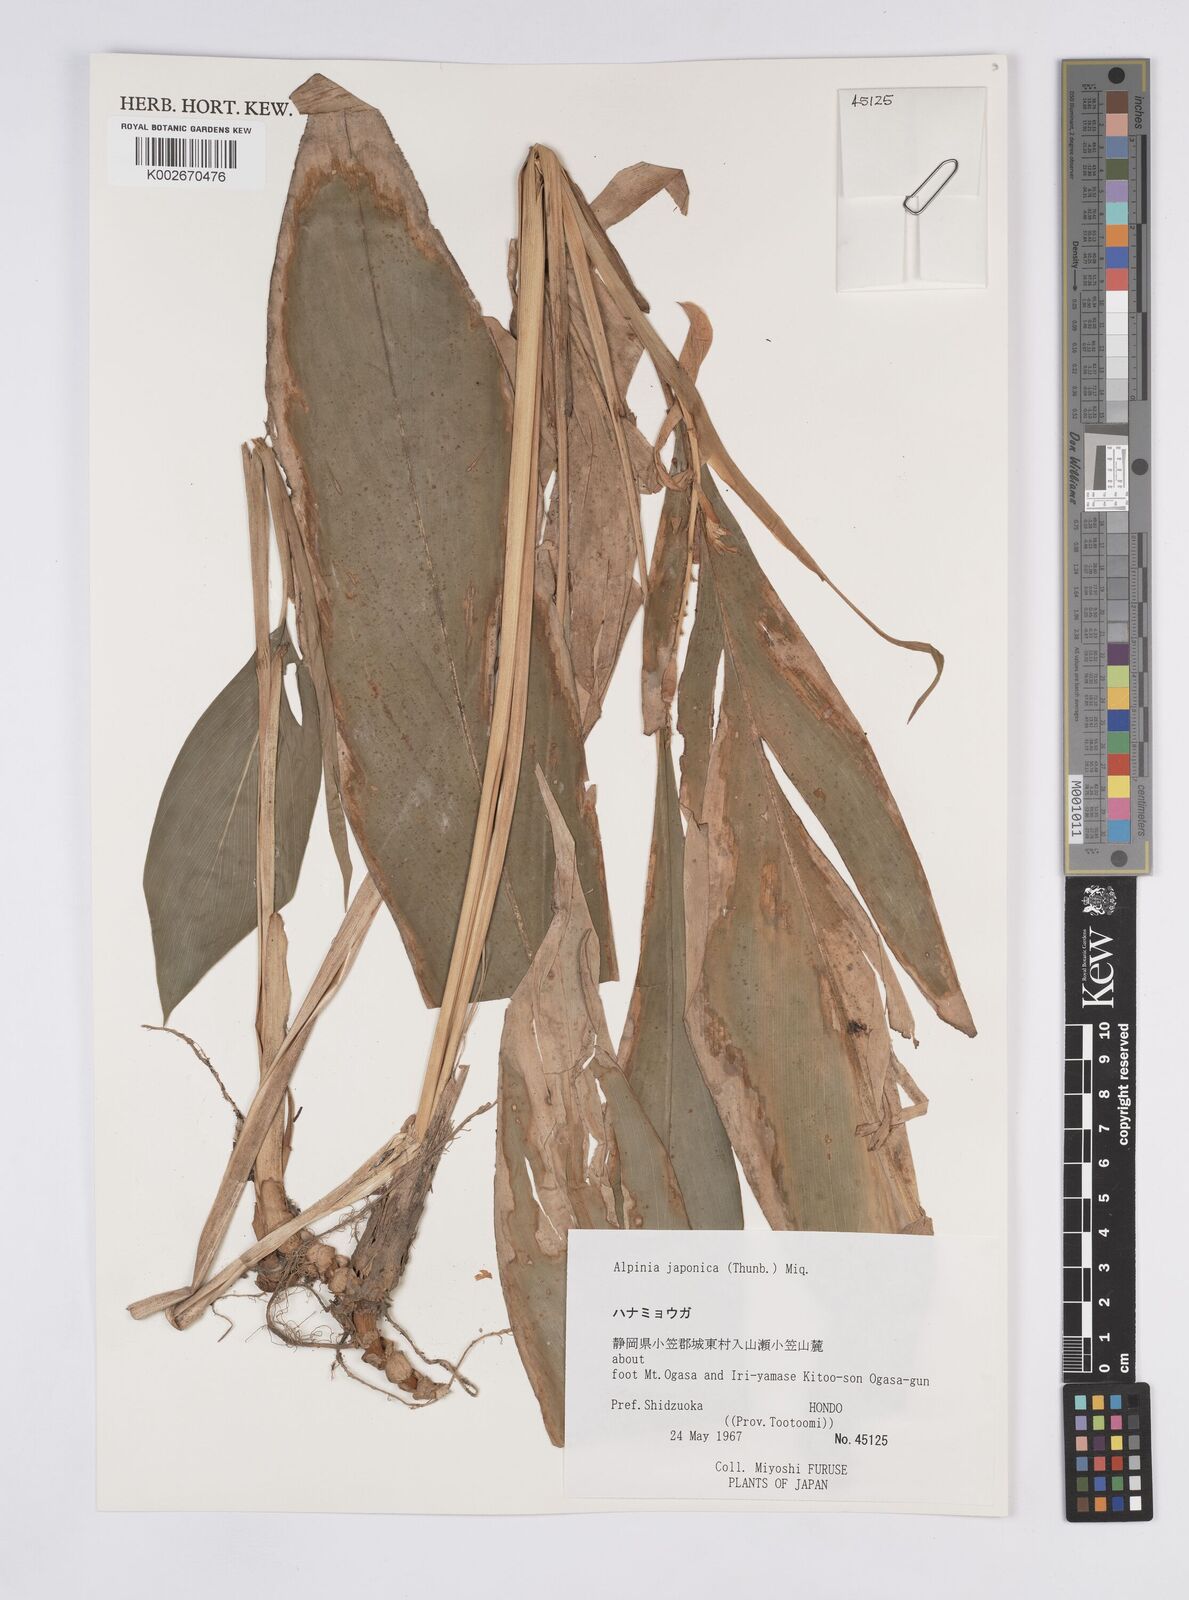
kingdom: Plantae
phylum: Tracheophyta
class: Liliopsida
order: Zingiberales
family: Zingiberaceae
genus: Alpinia
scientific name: Alpinia japonica
